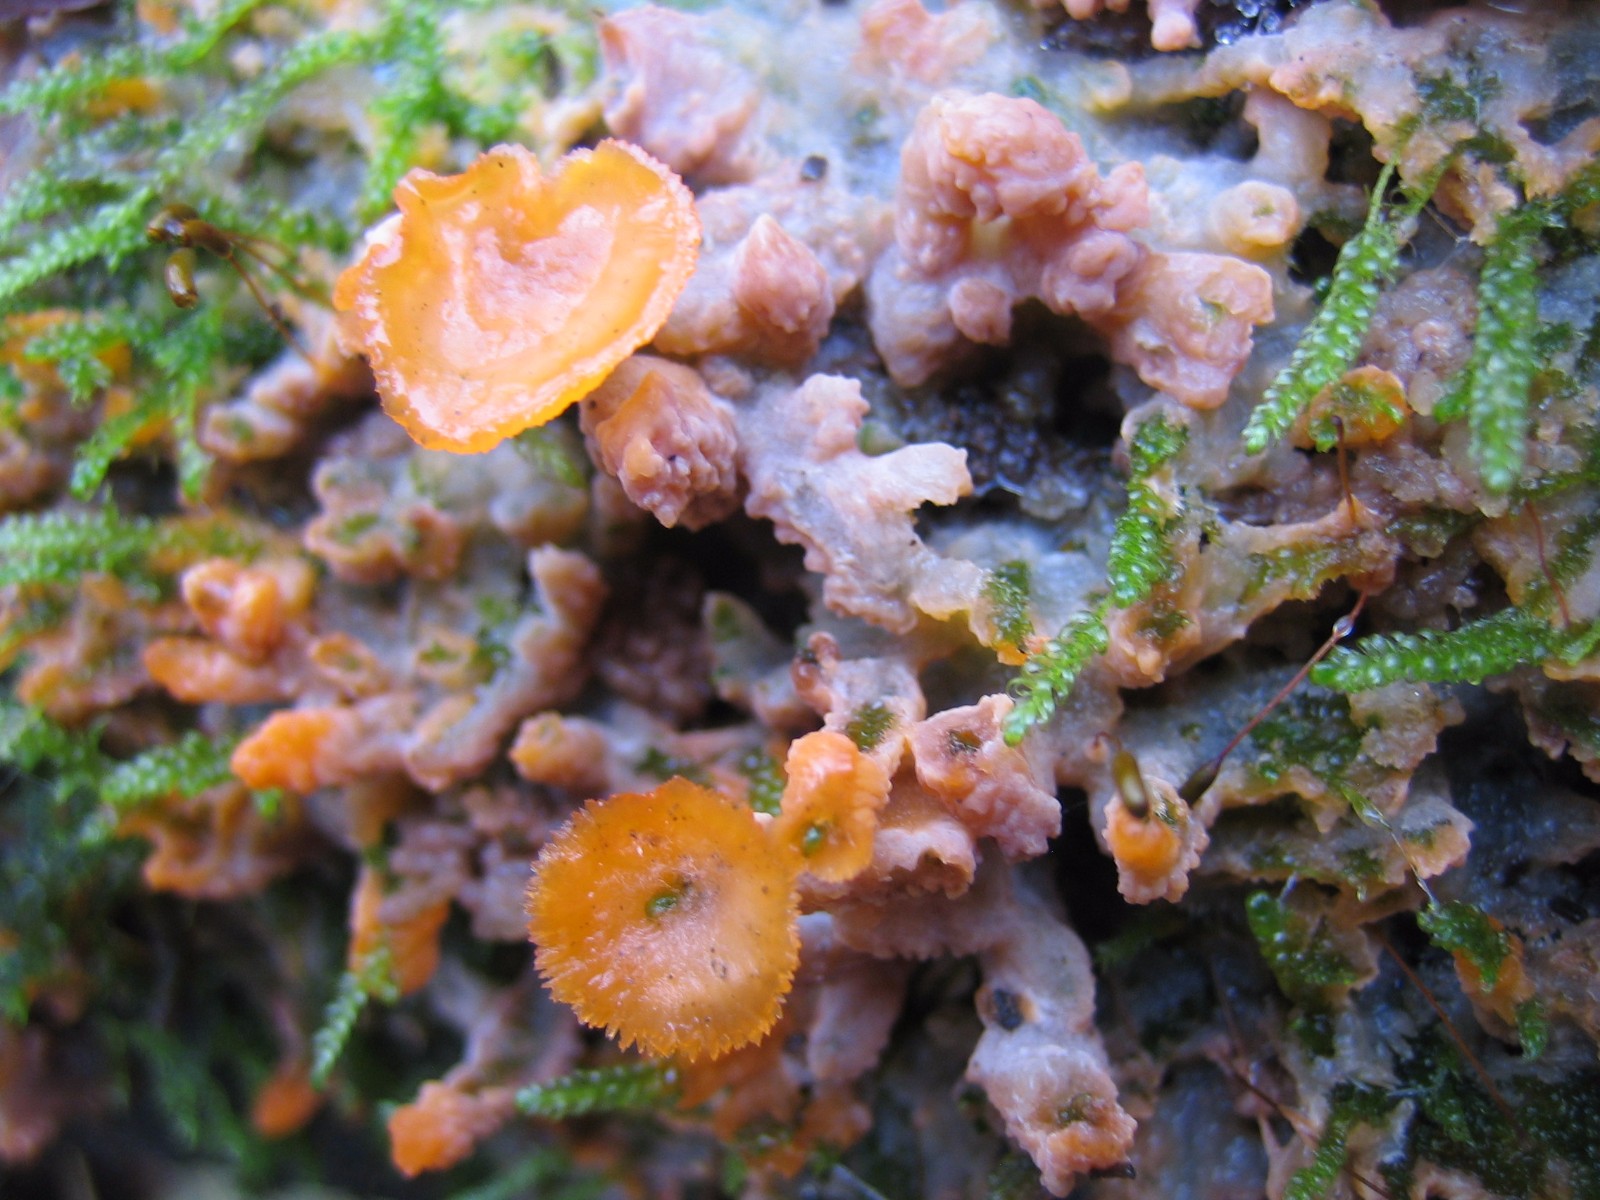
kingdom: Fungi
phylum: Basidiomycota
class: Agaricomycetes
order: Polyporales
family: Meruliaceae
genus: Phlebia
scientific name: Phlebia radiata
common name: stråle-åresvamp
